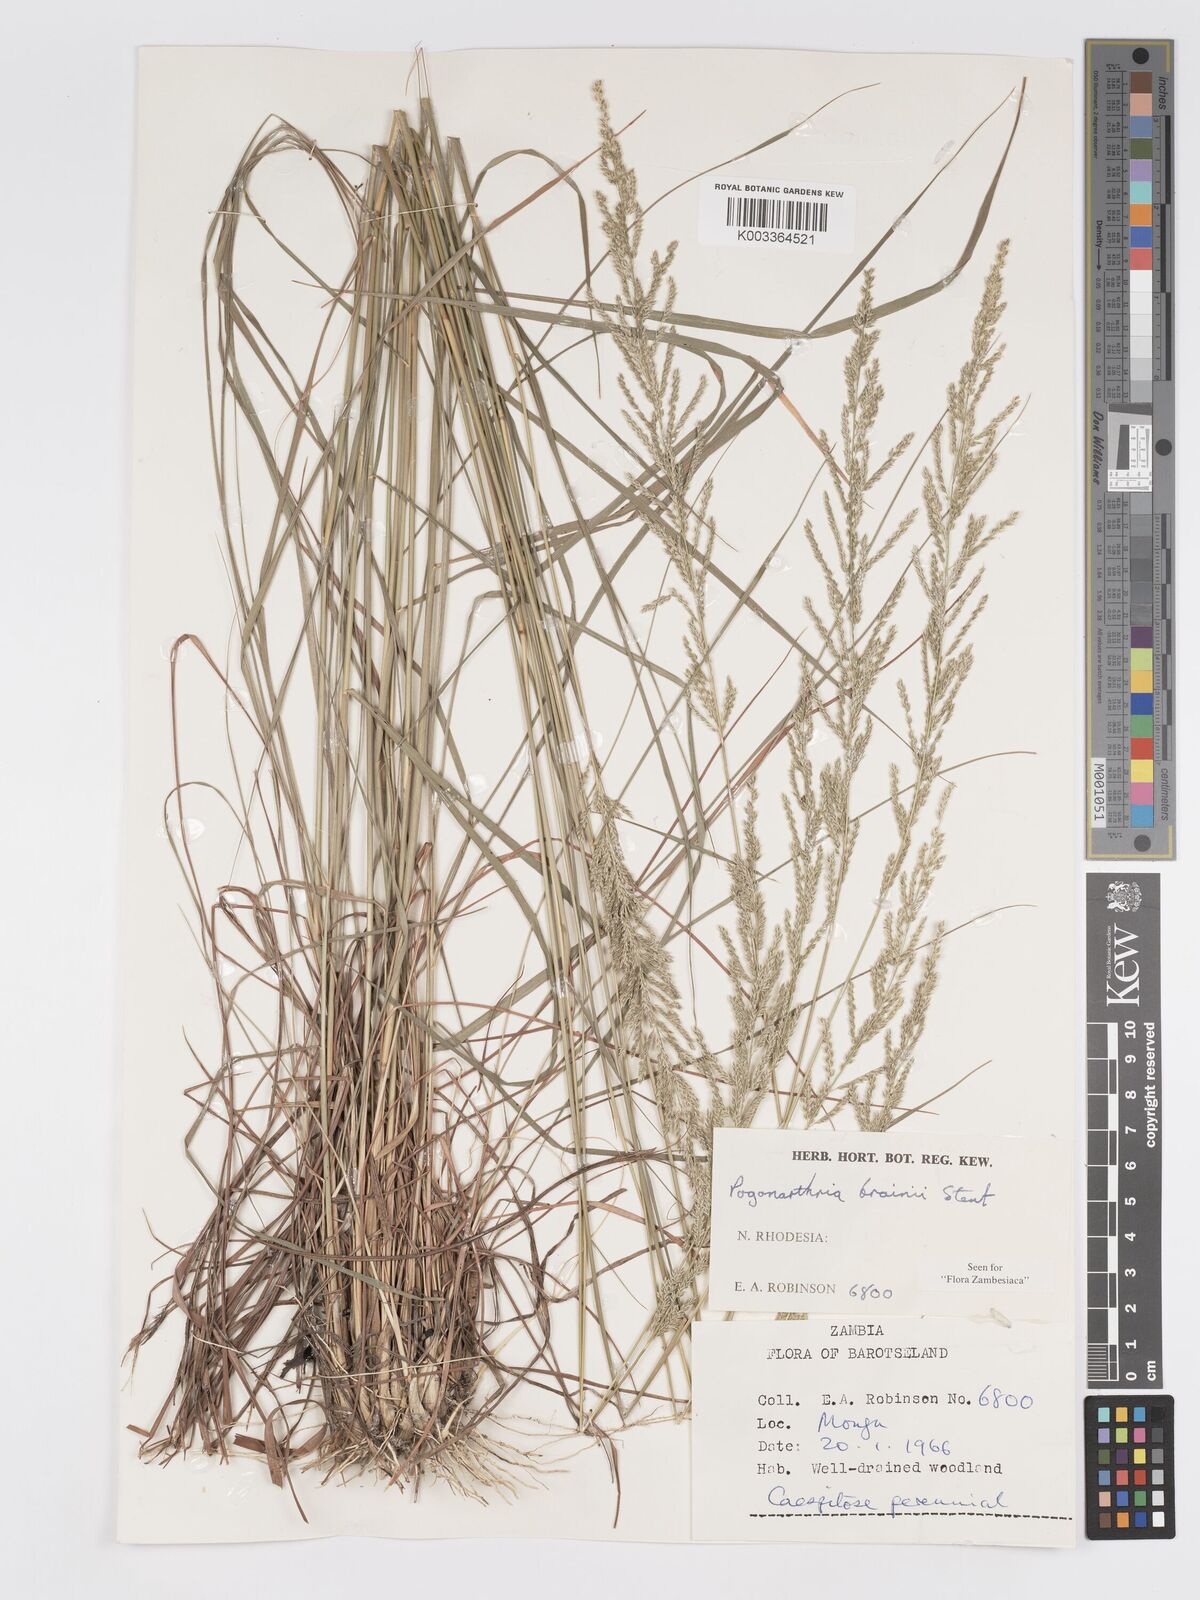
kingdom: Plantae
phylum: Tracheophyta
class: Liliopsida
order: Poales
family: Poaceae
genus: Eragrostis
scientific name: Eragrostis brainii
